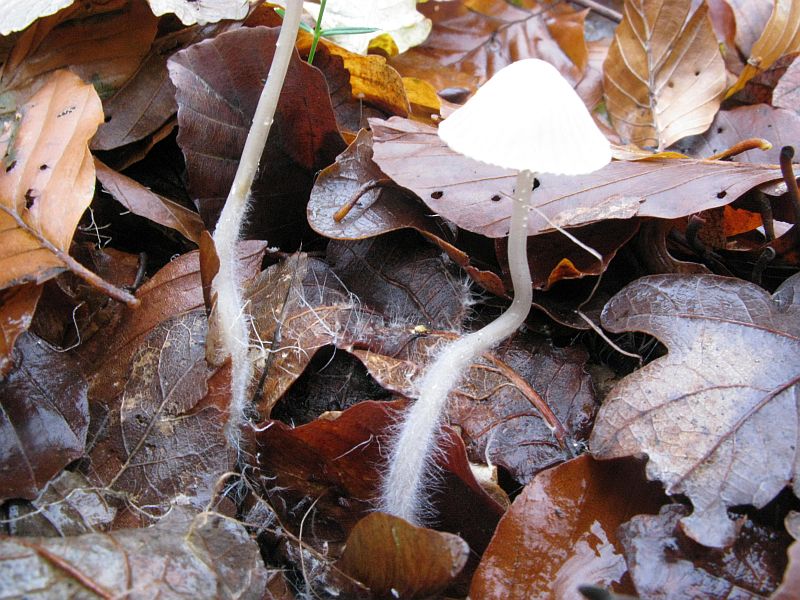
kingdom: Fungi
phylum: Basidiomycota
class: Agaricomycetes
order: Agaricales
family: Mycenaceae
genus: Mycena
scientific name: Mycena galopus
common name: hvidmælket huesvamp
